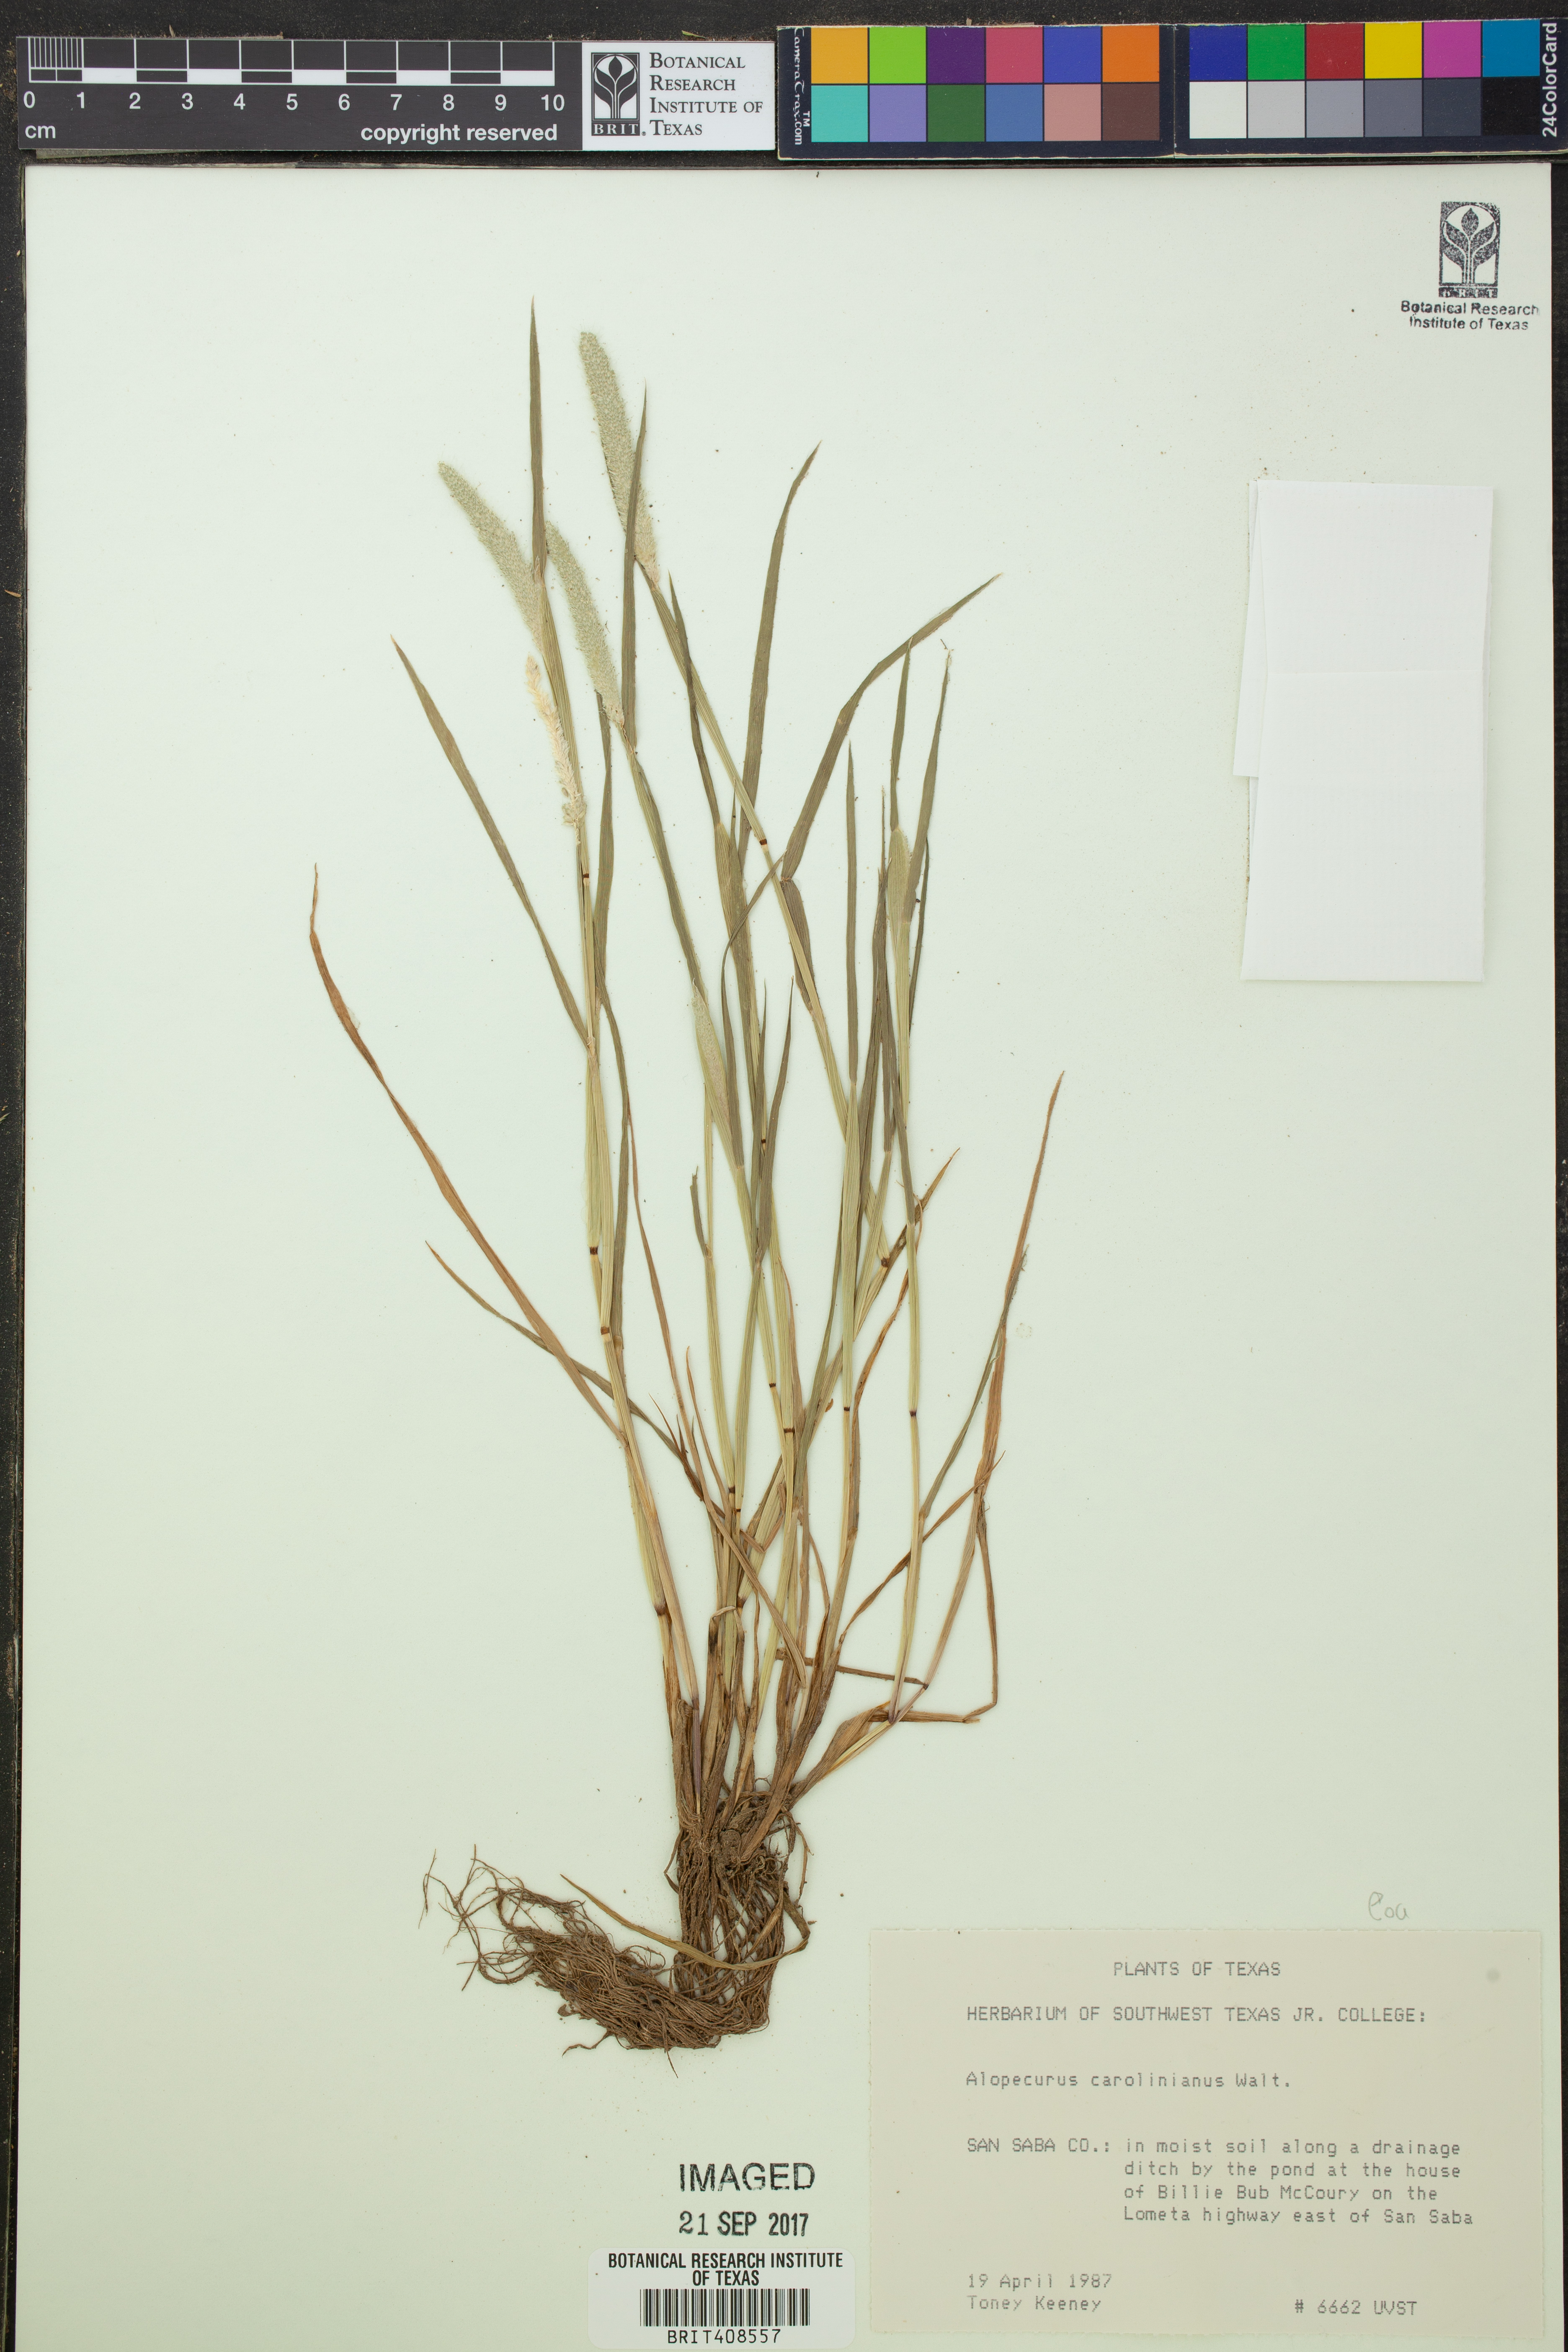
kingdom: Plantae
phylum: Tracheophyta
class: Liliopsida
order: Poales
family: Poaceae
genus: Alopecurus
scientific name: Alopecurus carolinianus
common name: Tufted foxtail
